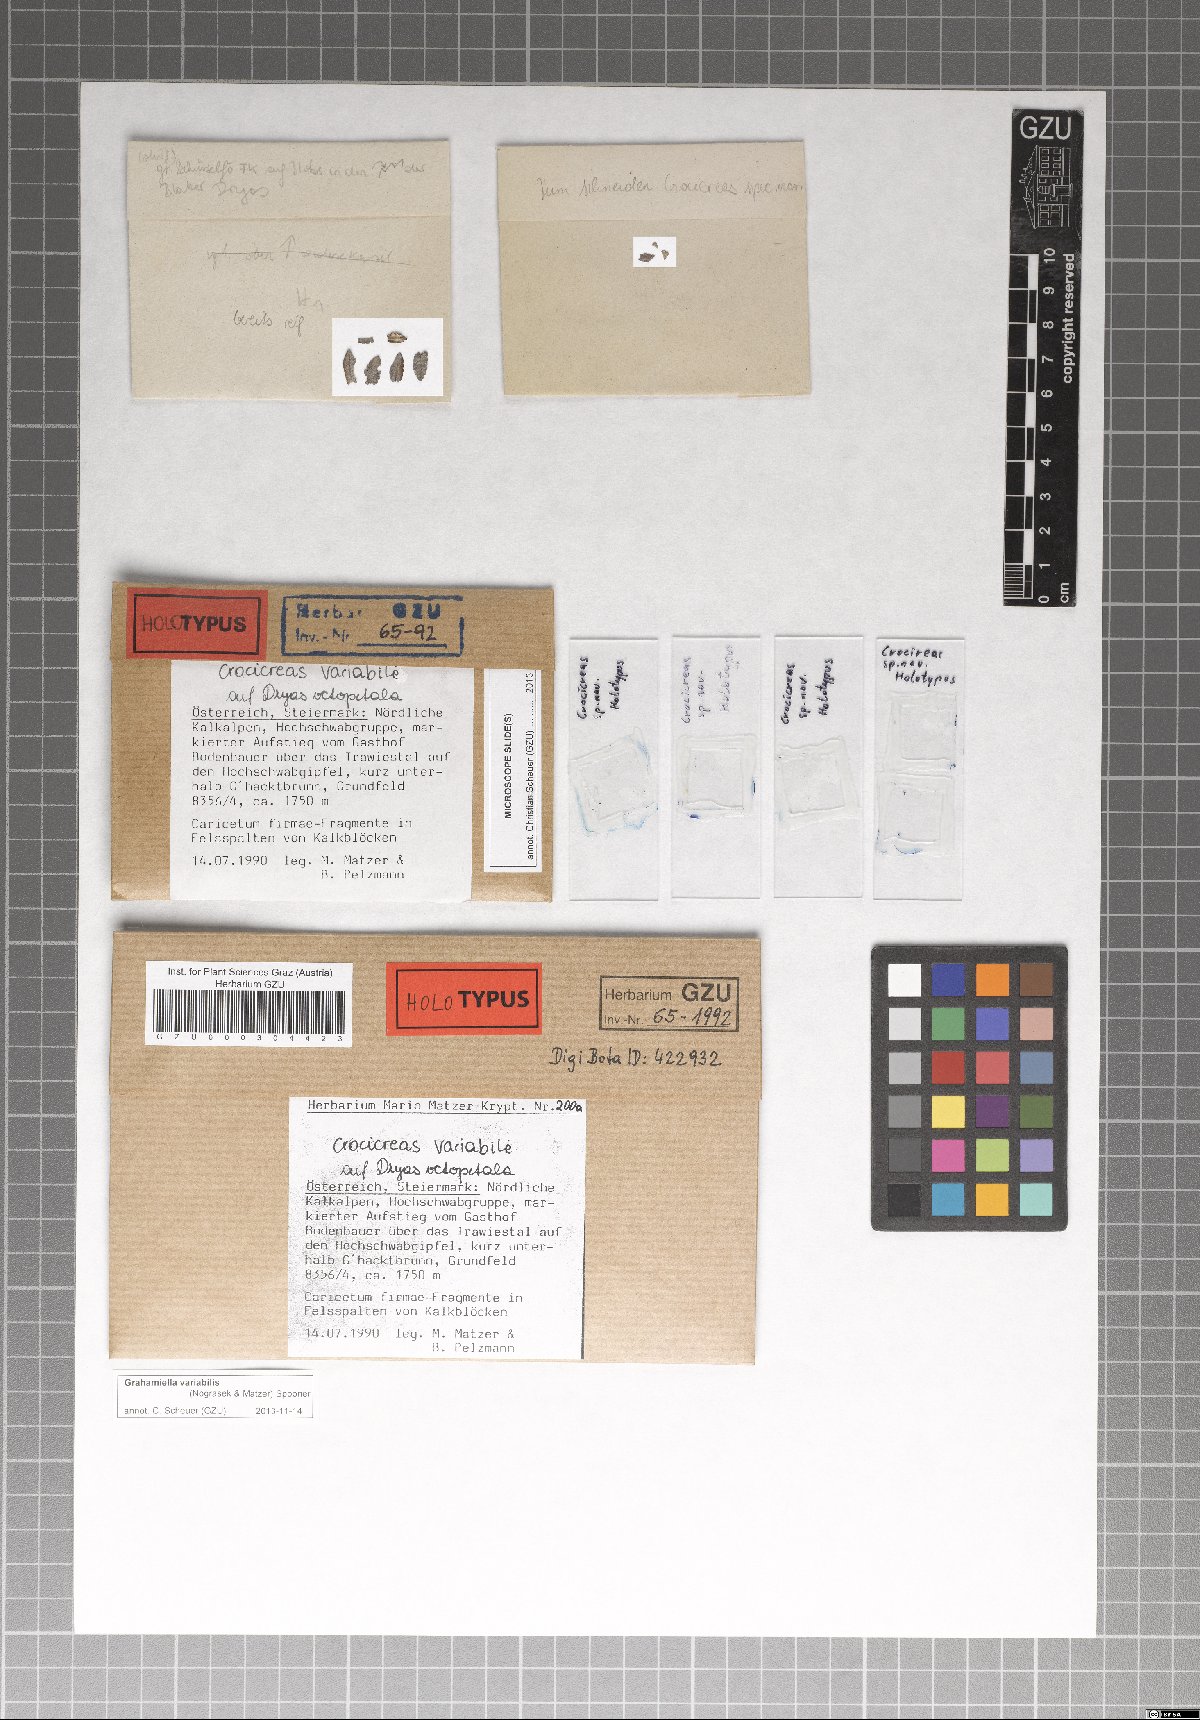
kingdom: Fungi
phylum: Ascomycota
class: Leotiomycetes
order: Helotiales
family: Hyaloscyphaceae
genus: Grahamiella
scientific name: Grahamiella variabile
